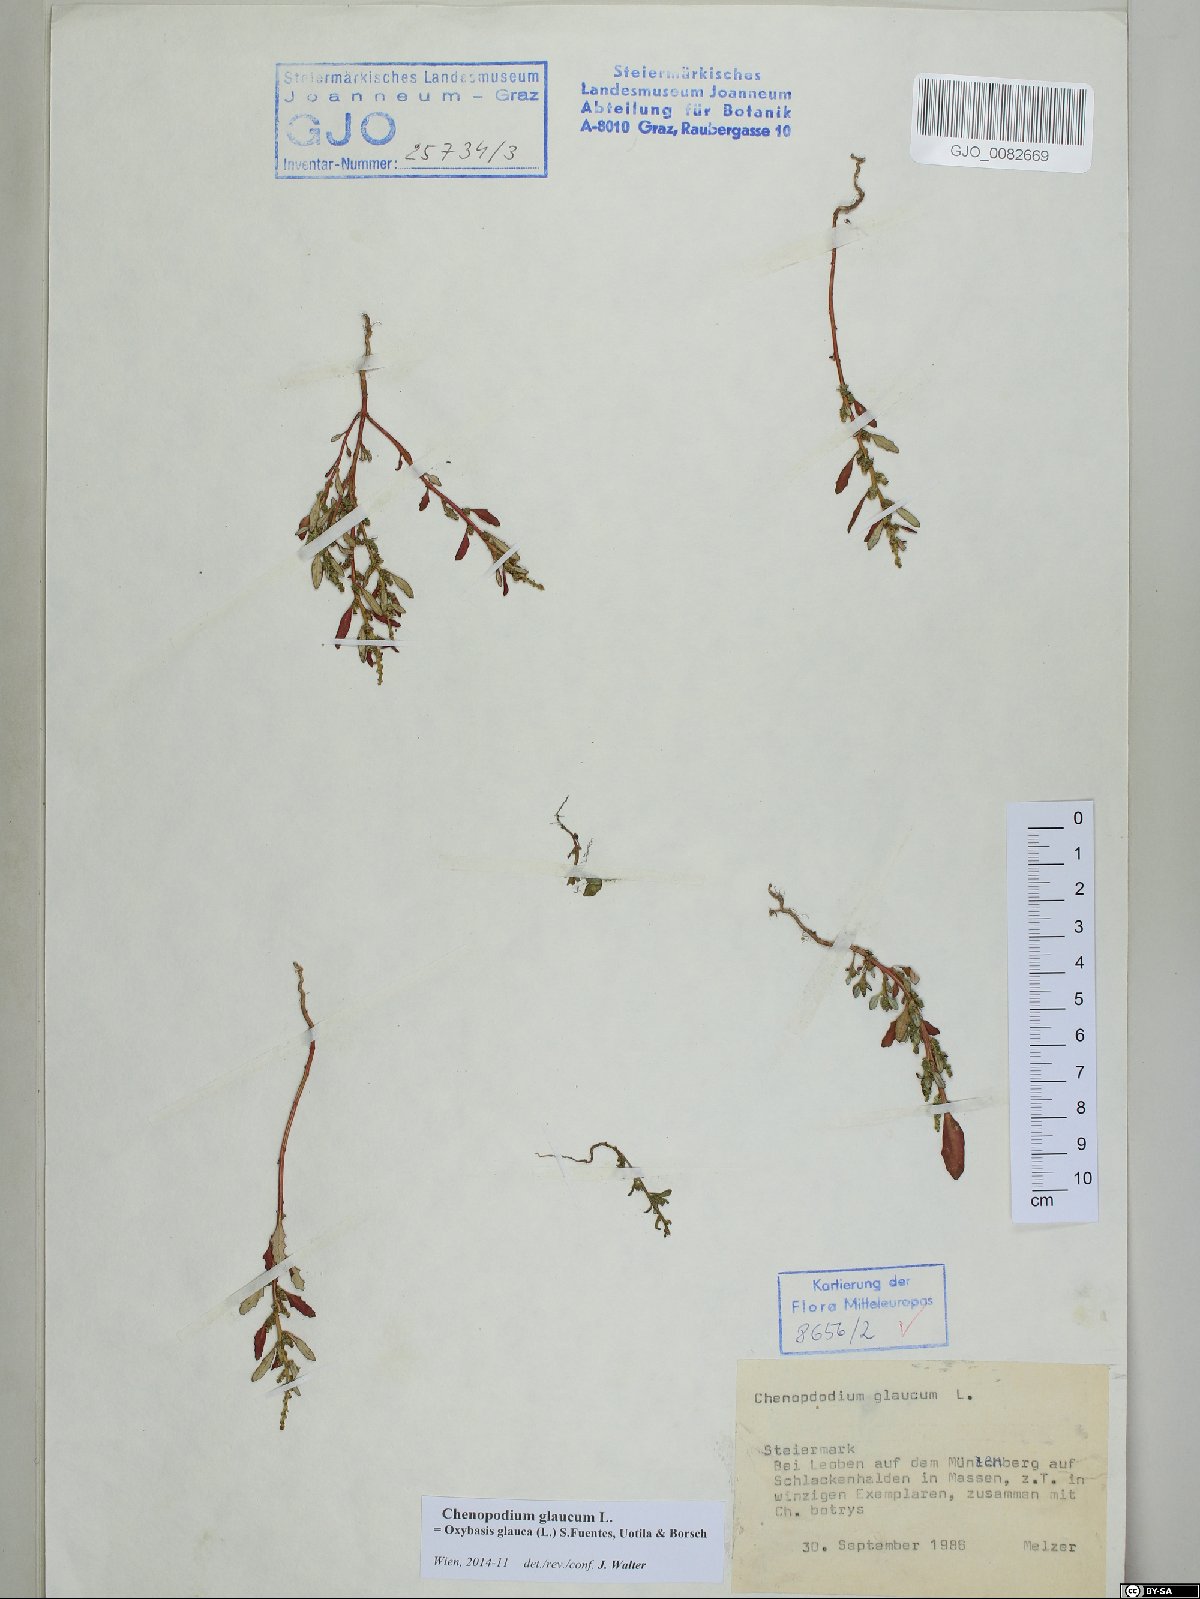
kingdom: Plantae
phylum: Tracheophyta
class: Magnoliopsida
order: Caryophyllales
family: Amaranthaceae
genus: Oxybasis
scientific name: Oxybasis glauca
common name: Glaucous goosefoot
